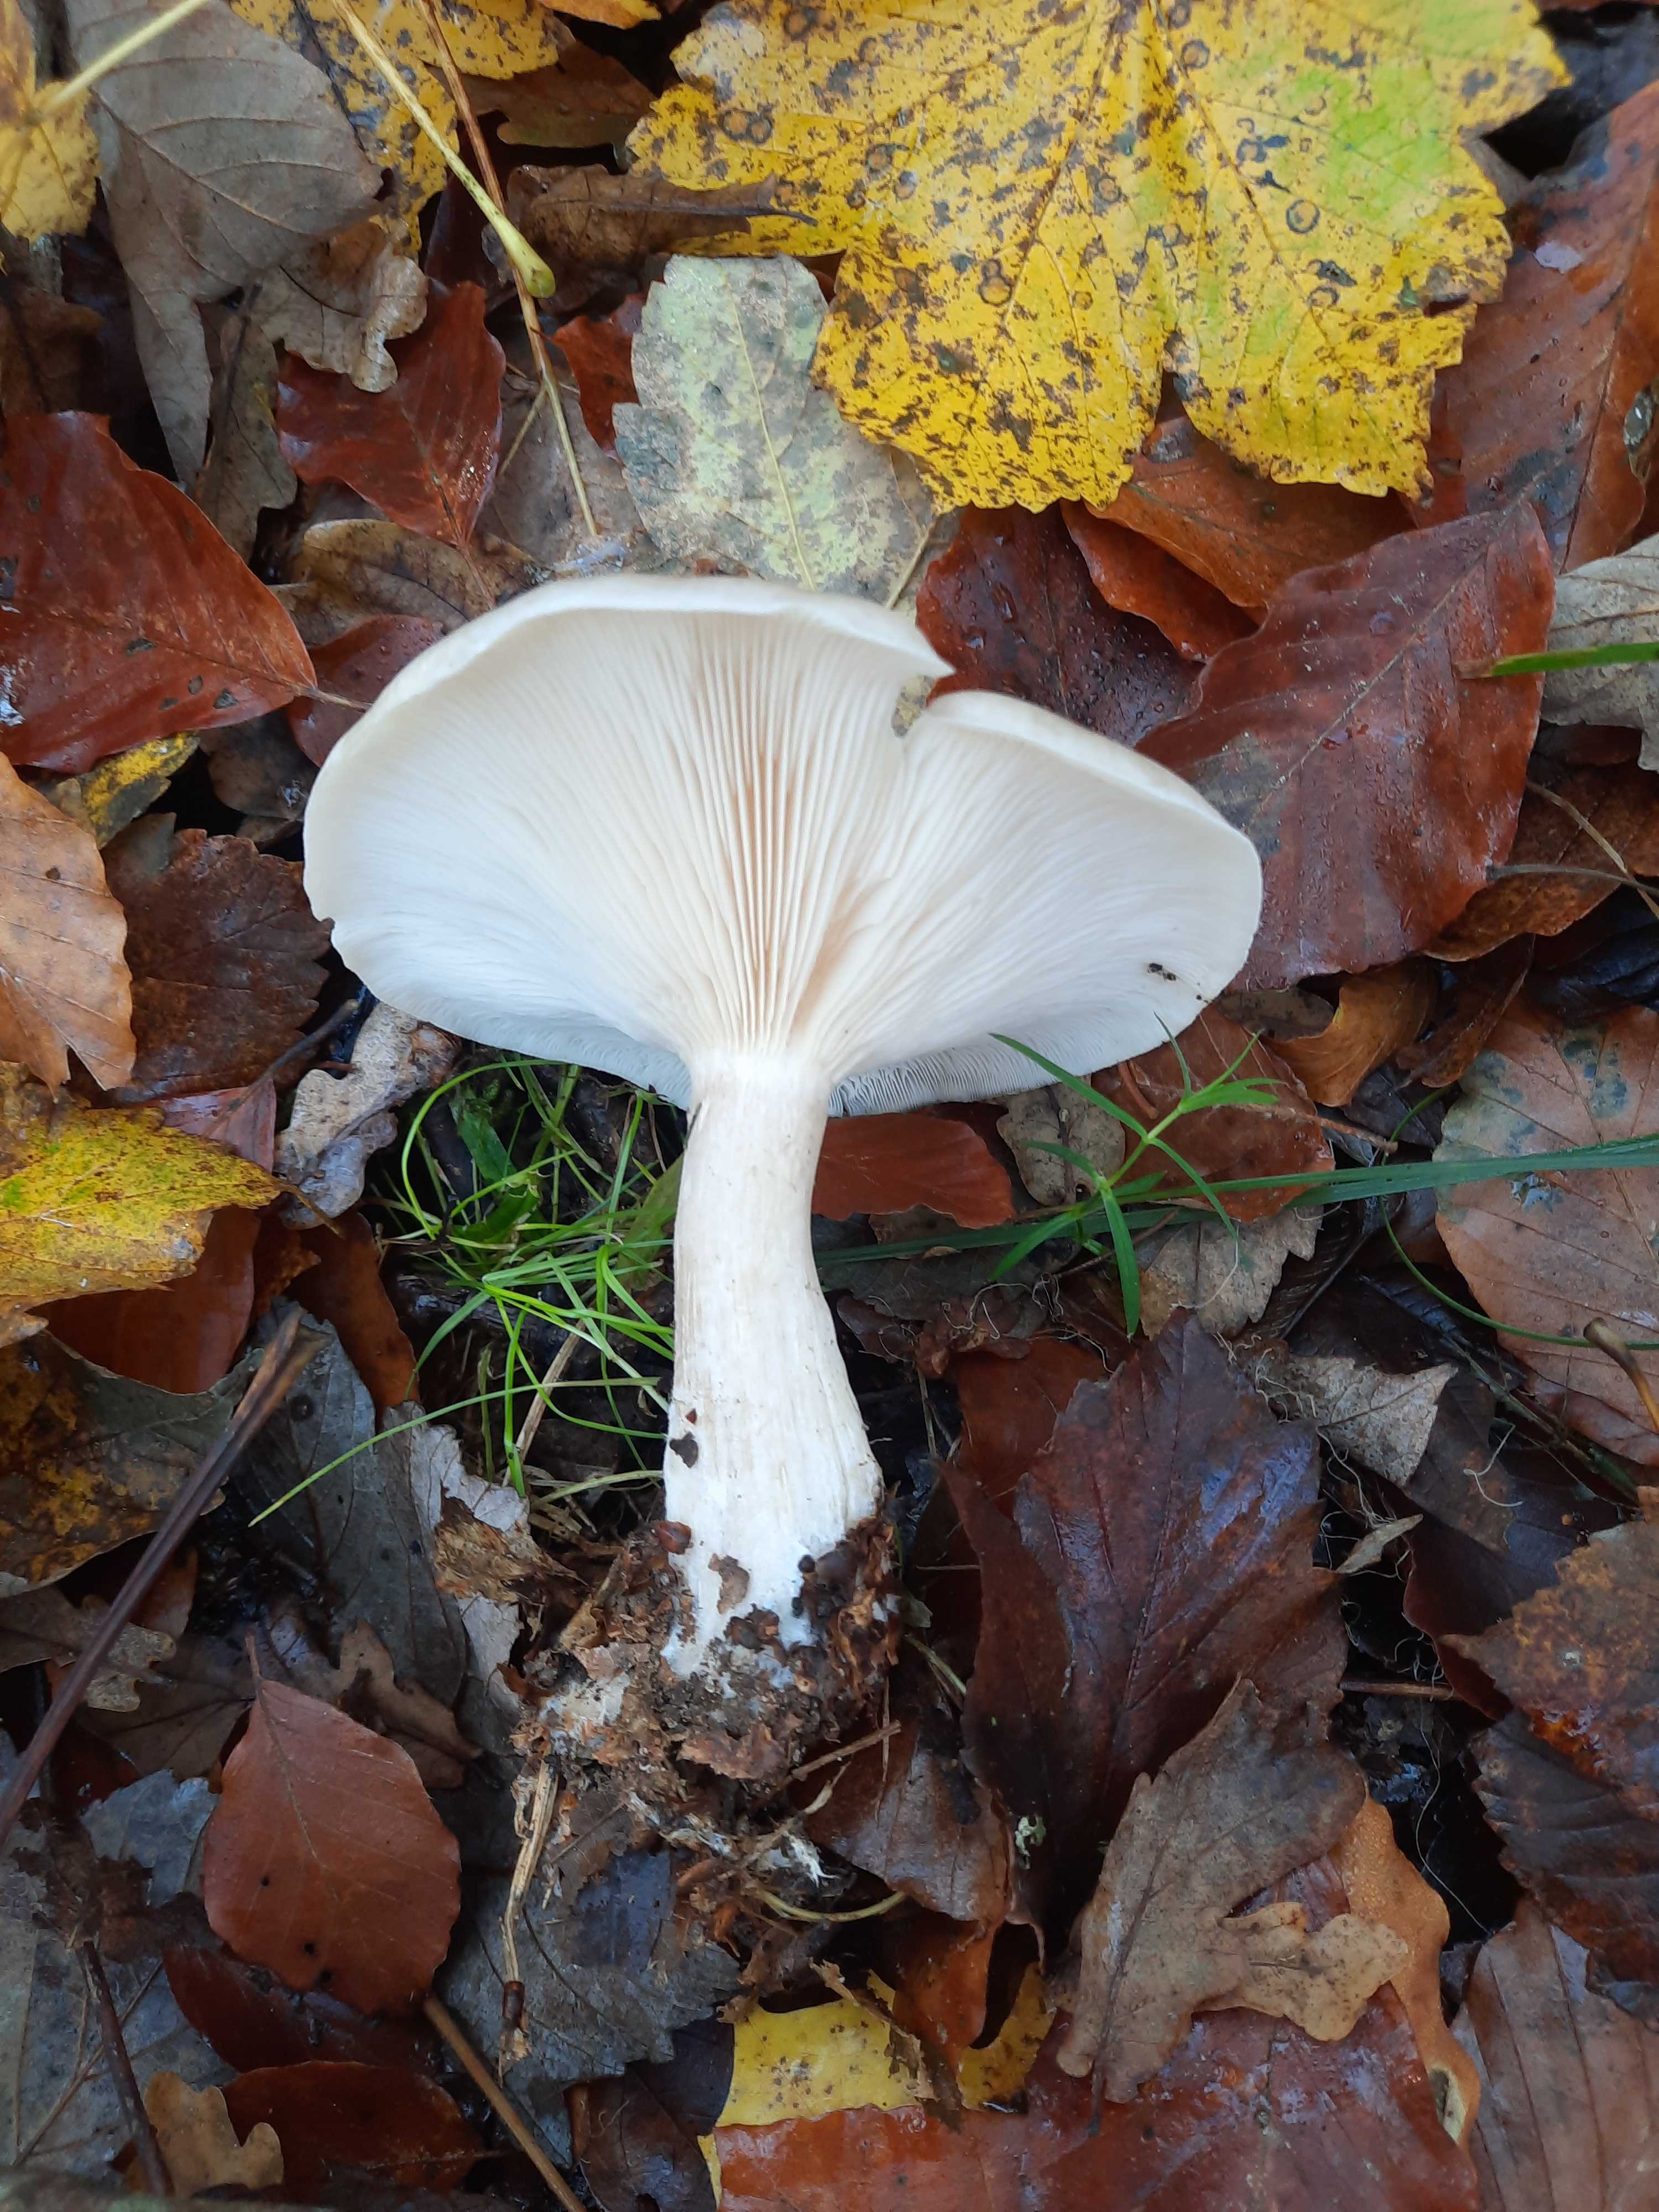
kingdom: Fungi
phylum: Basidiomycota
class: Agaricomycetes
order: Agaricales
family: Tricholomataceae
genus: Clitocybe
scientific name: Clitocybe nebularis
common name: tåge-tragthat
